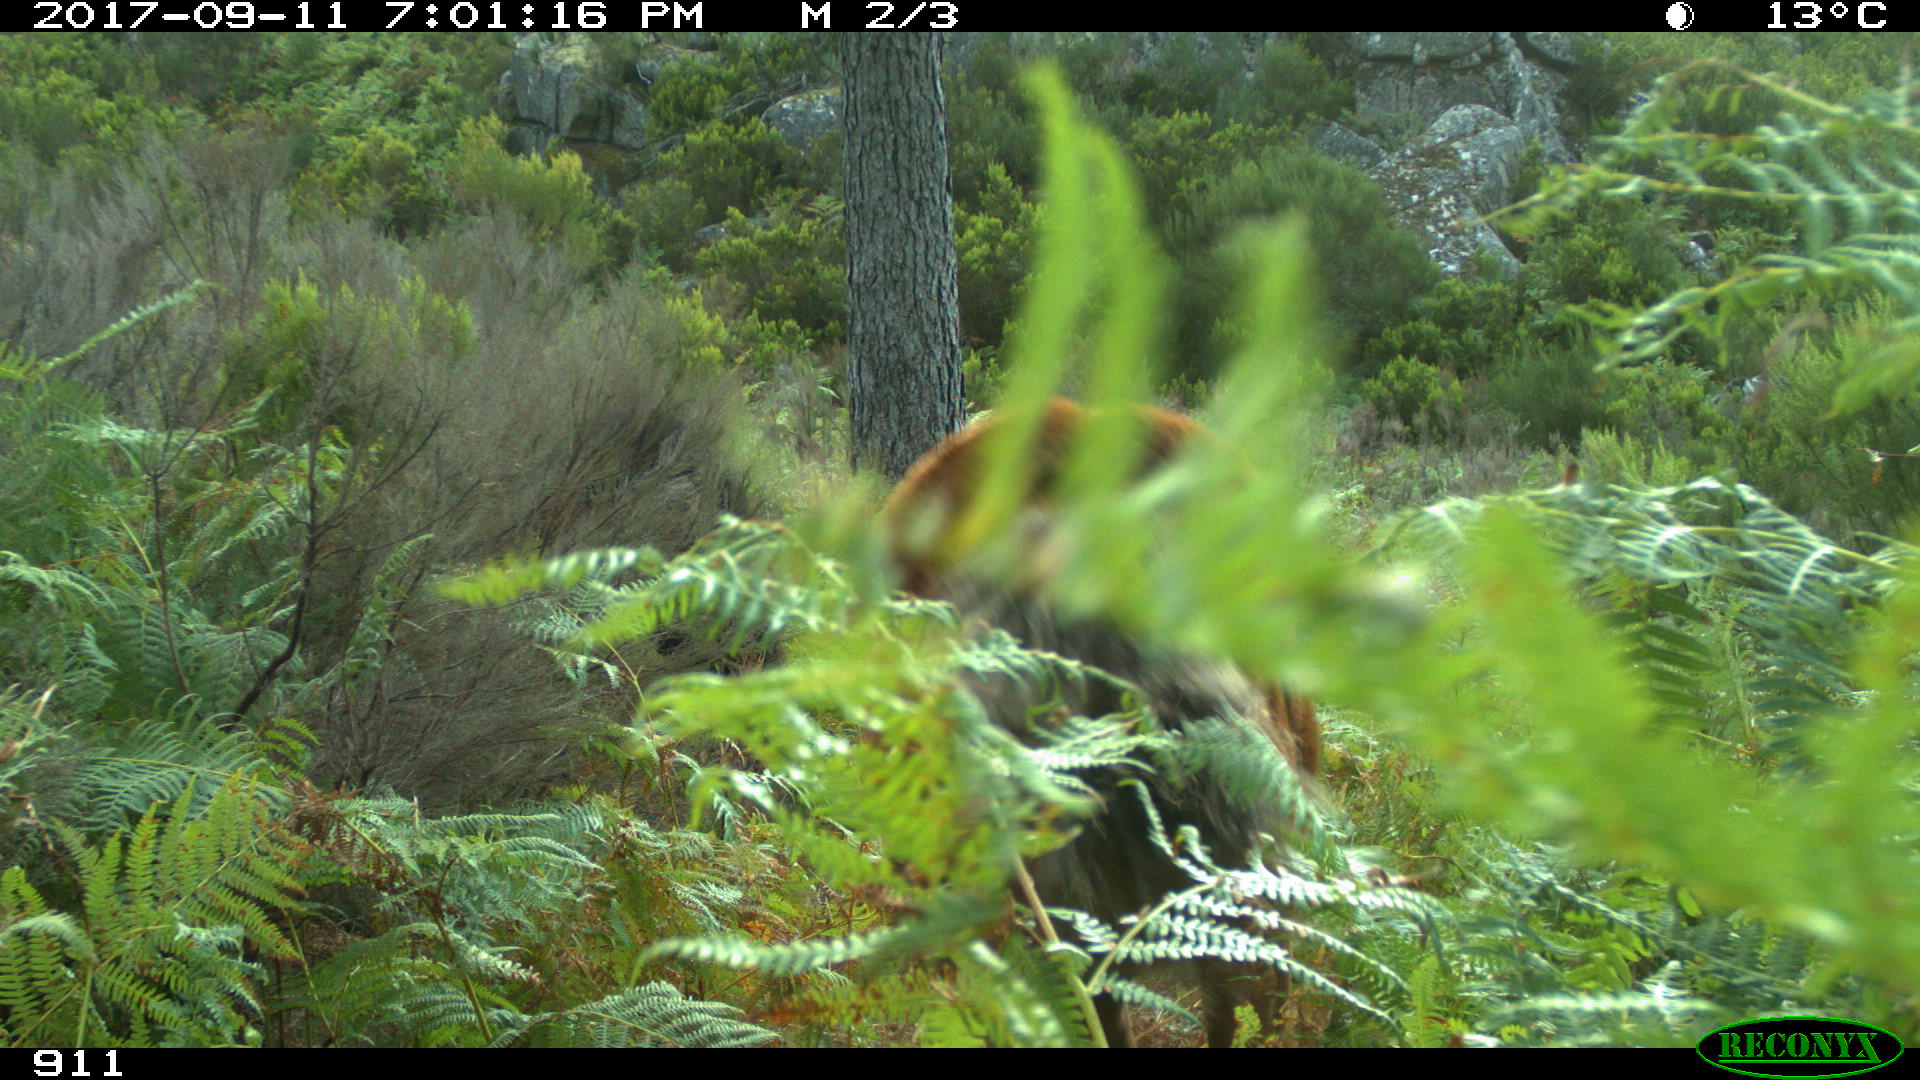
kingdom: Animalia
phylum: Chordata
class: Mammalia
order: Perissodactyla
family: Equidae
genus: Equus
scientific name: Equus caballus
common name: Horse
